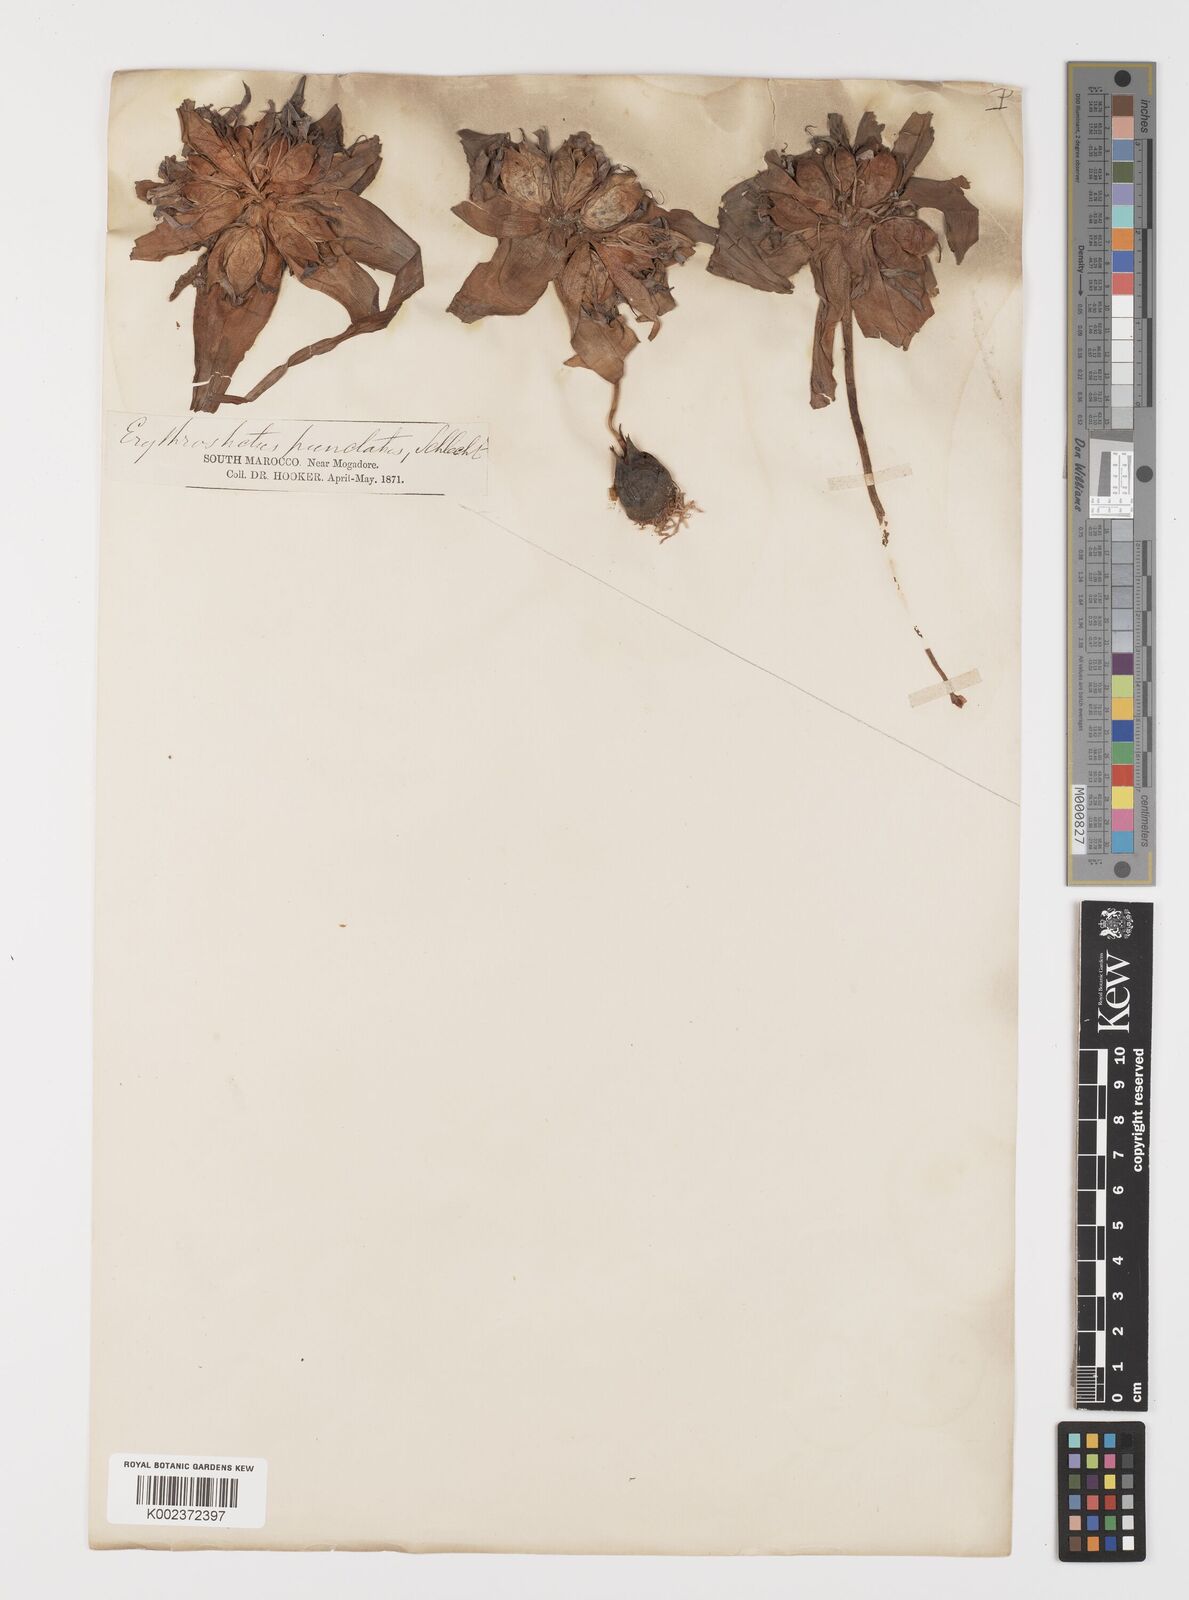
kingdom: Plantae
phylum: Tracheophyta
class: Liliopsida
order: Liliales
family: Colchicaceae
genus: Colchicum
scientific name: Colchicum gramineum
